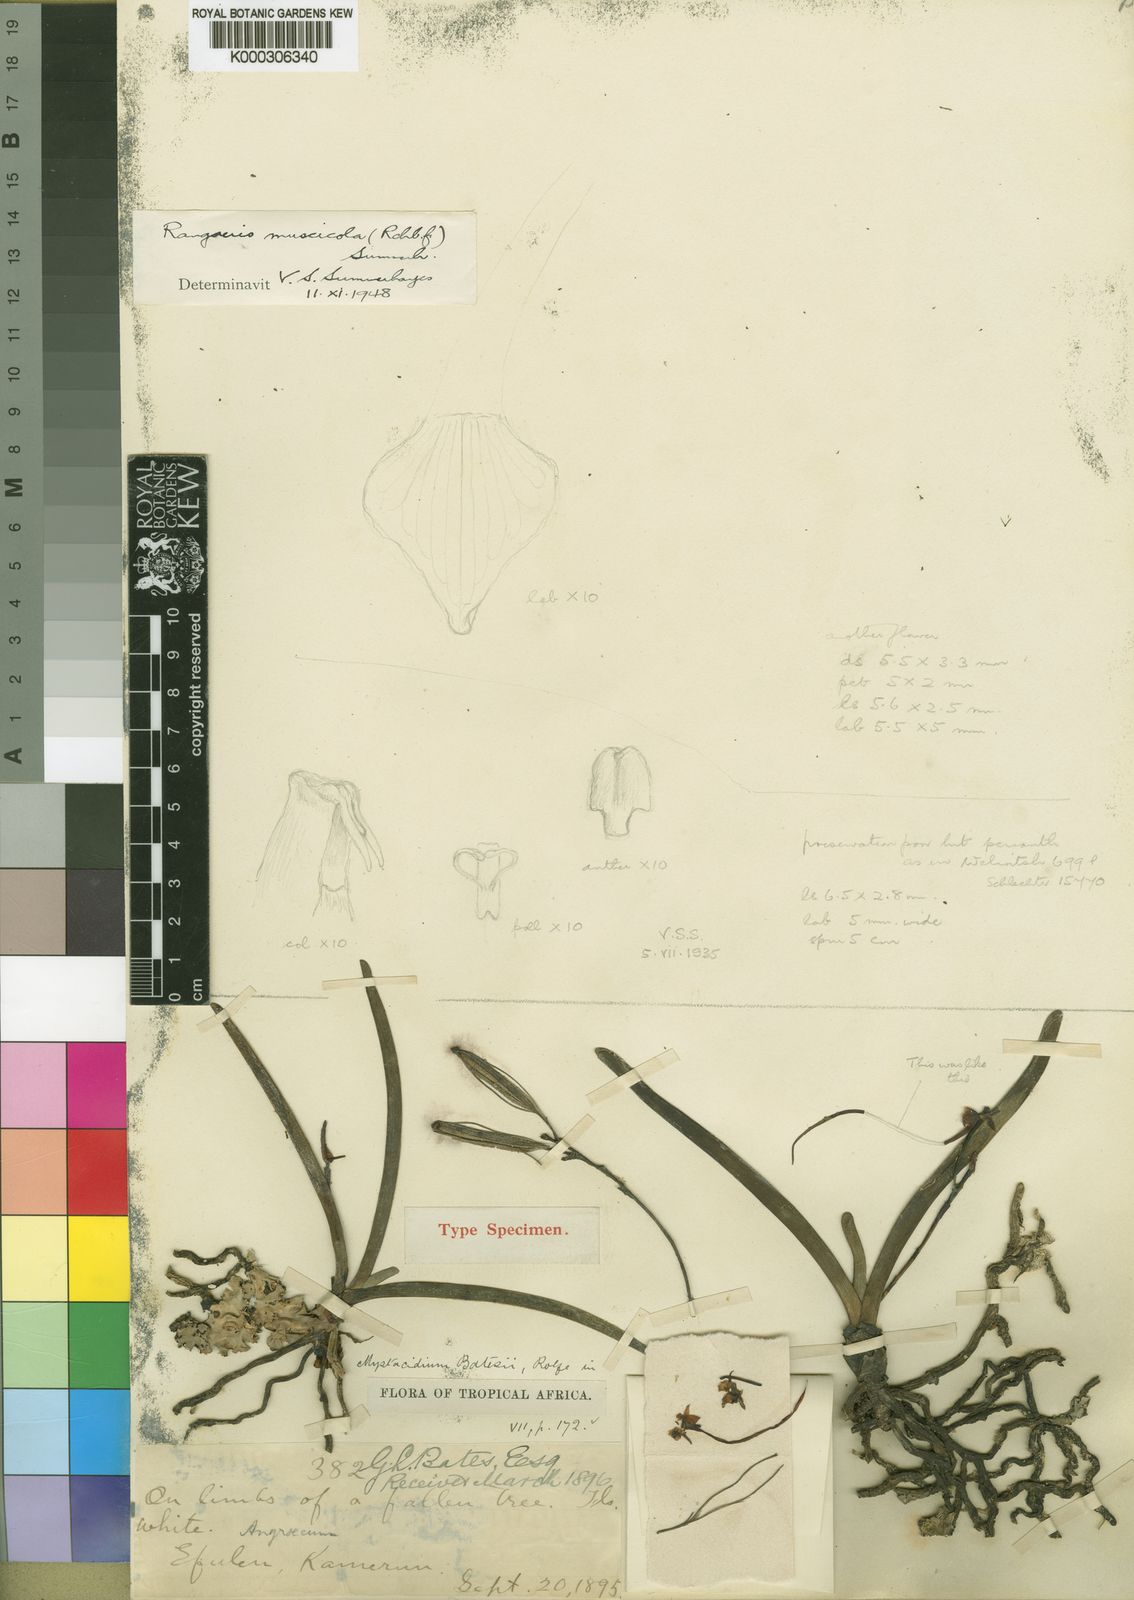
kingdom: Plantae
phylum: Tracheophyta
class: Liliopsida
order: Asparagales
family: Orchidaceae
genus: Rangaeris
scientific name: Rangaeris muscicola
